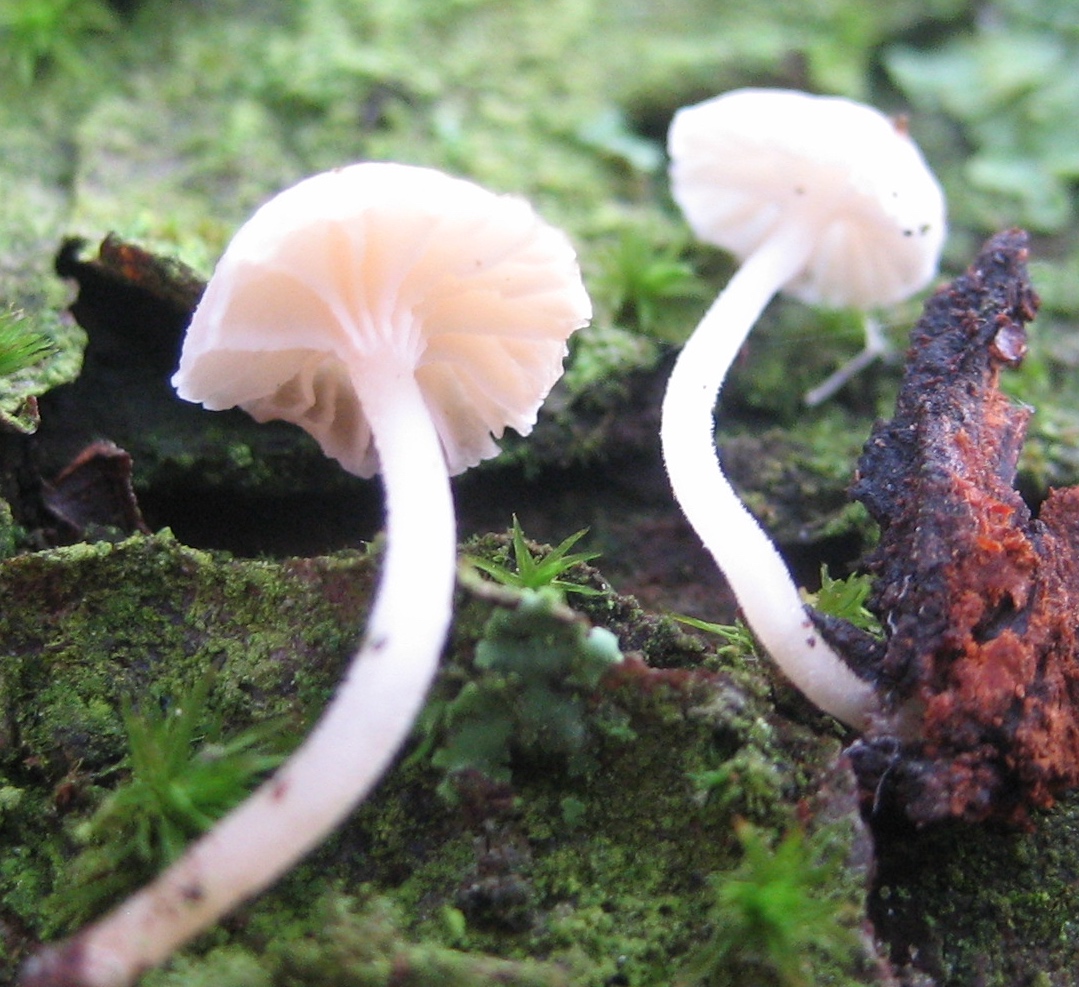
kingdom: Fungi
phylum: Basidiomycota
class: Agaricomycetes
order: Agaricales
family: Porotheleaceae
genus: Phloeomana
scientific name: Phloeomana speirea
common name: kvist-huesvamp
